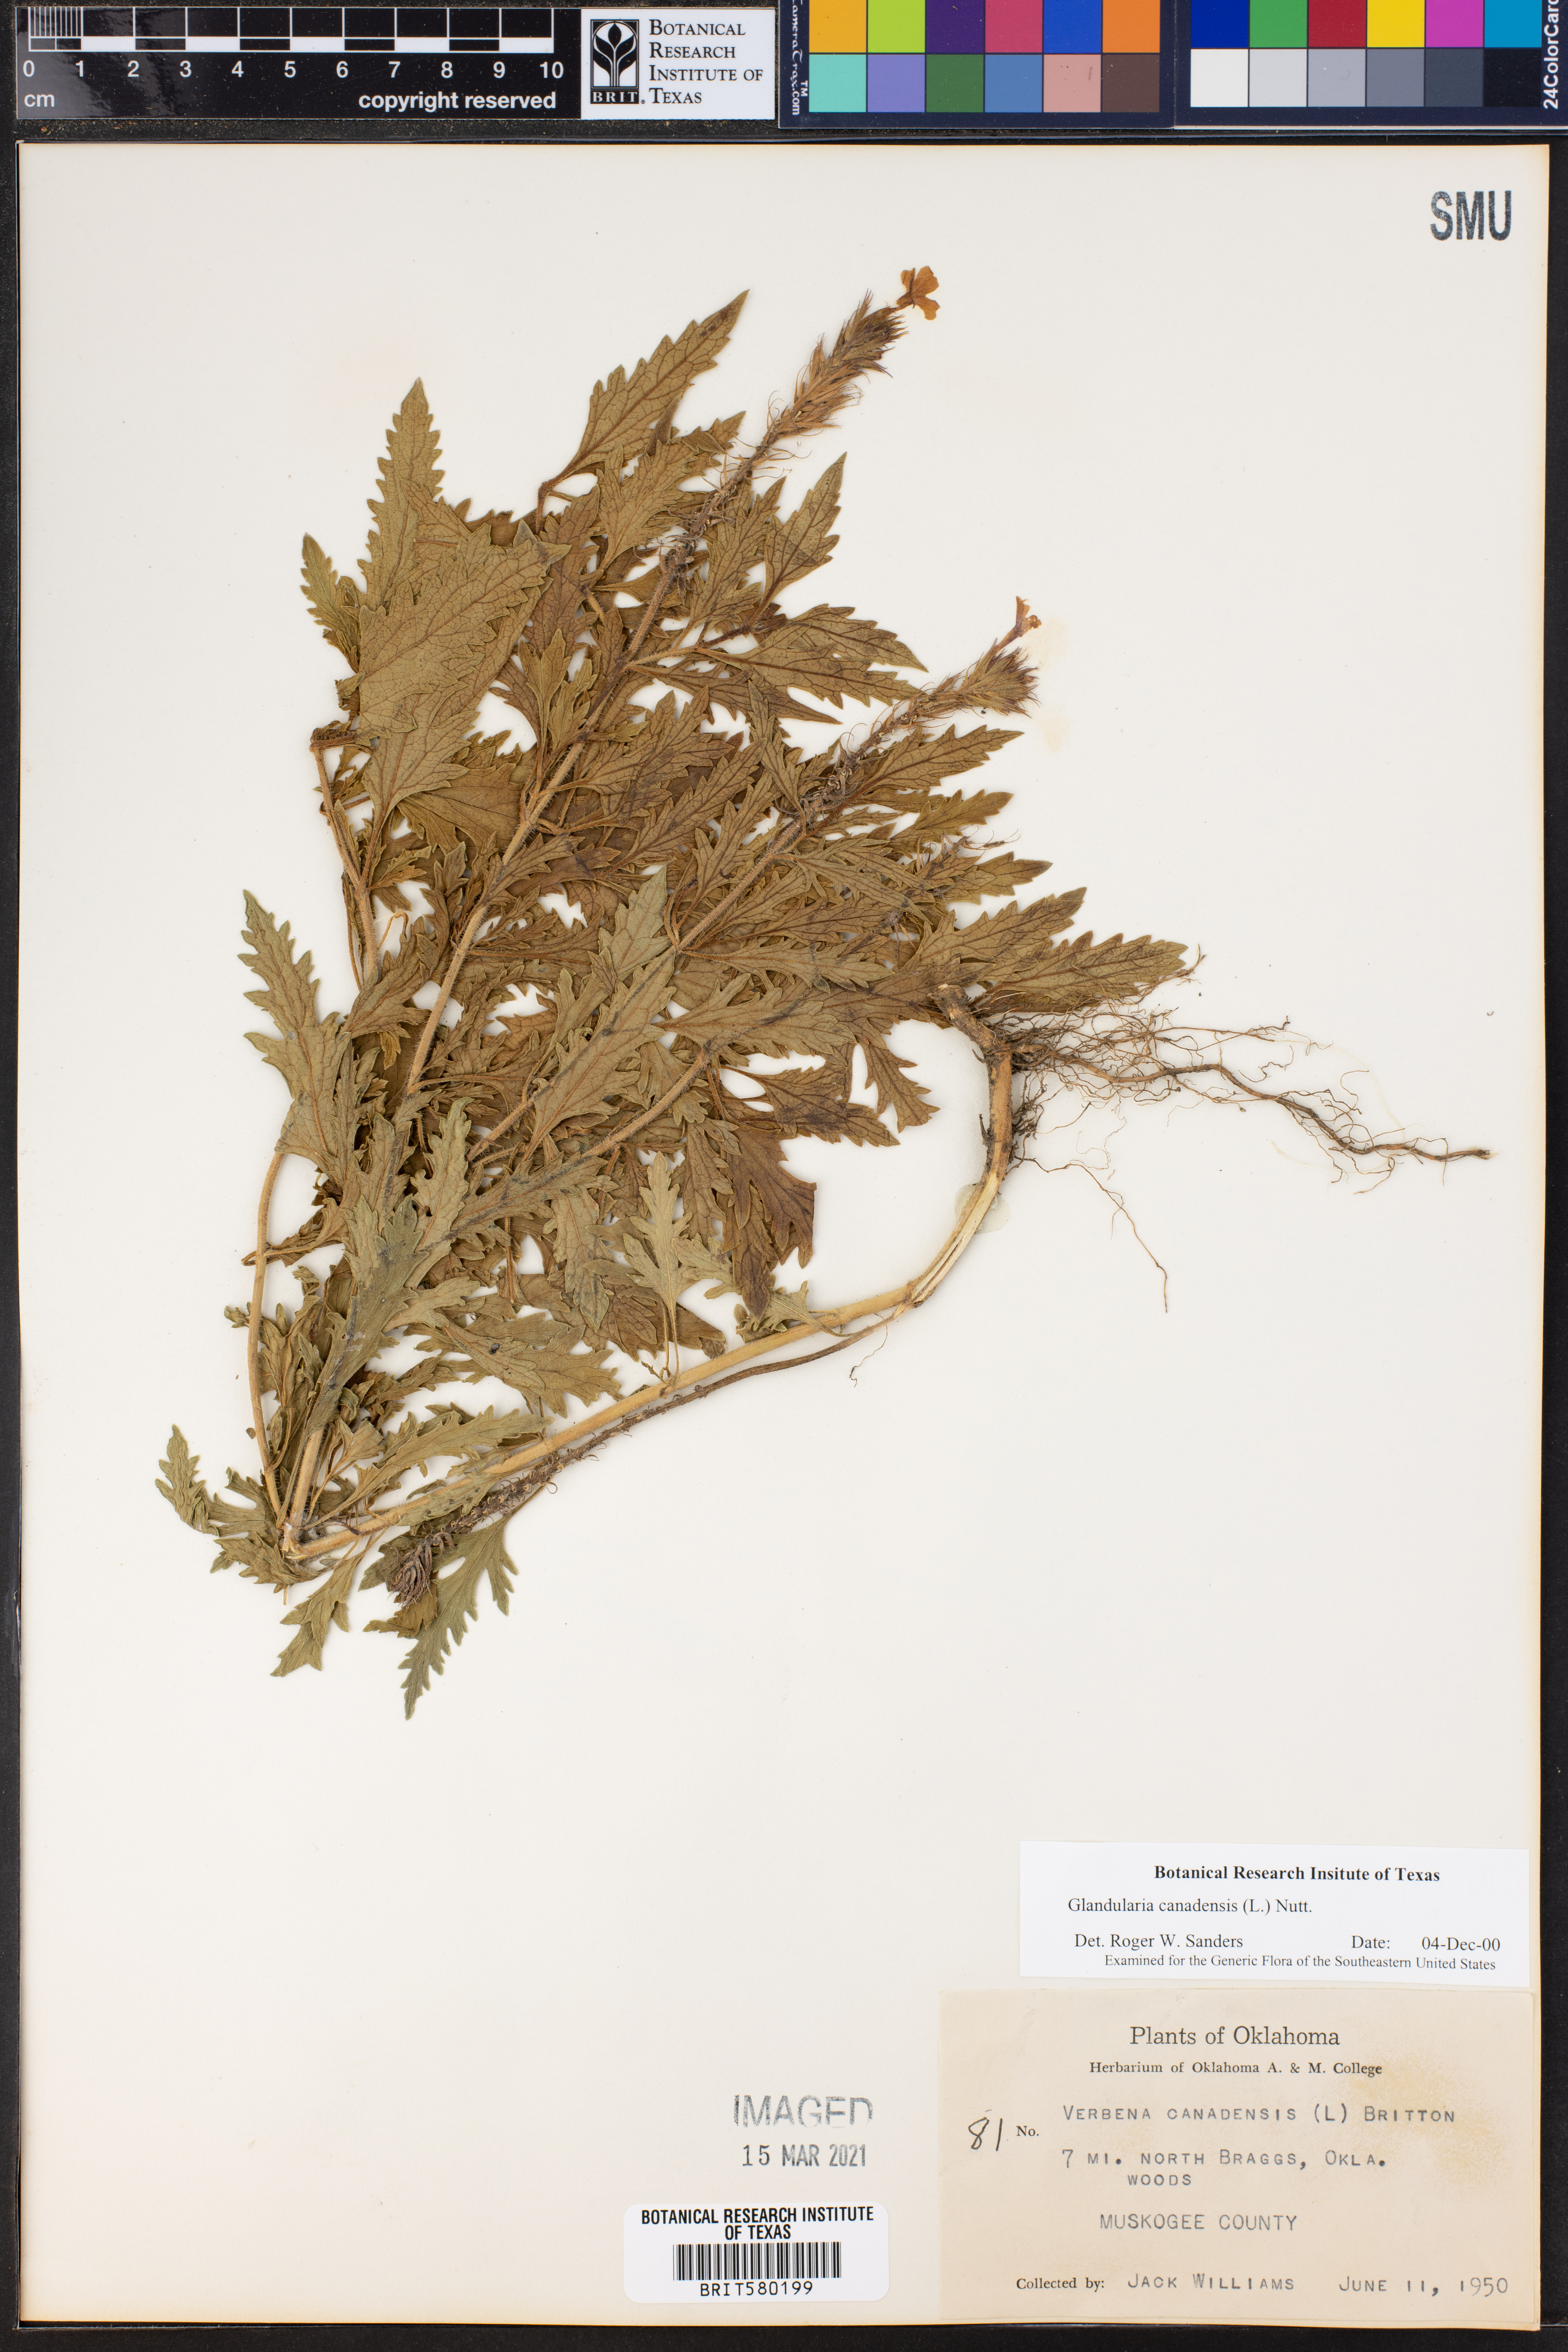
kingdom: Plantae
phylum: Tracheophyta
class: Magnoliopsida
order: Lamiales
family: Verbenaceae
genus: Verbena
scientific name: Verbena canadensis
